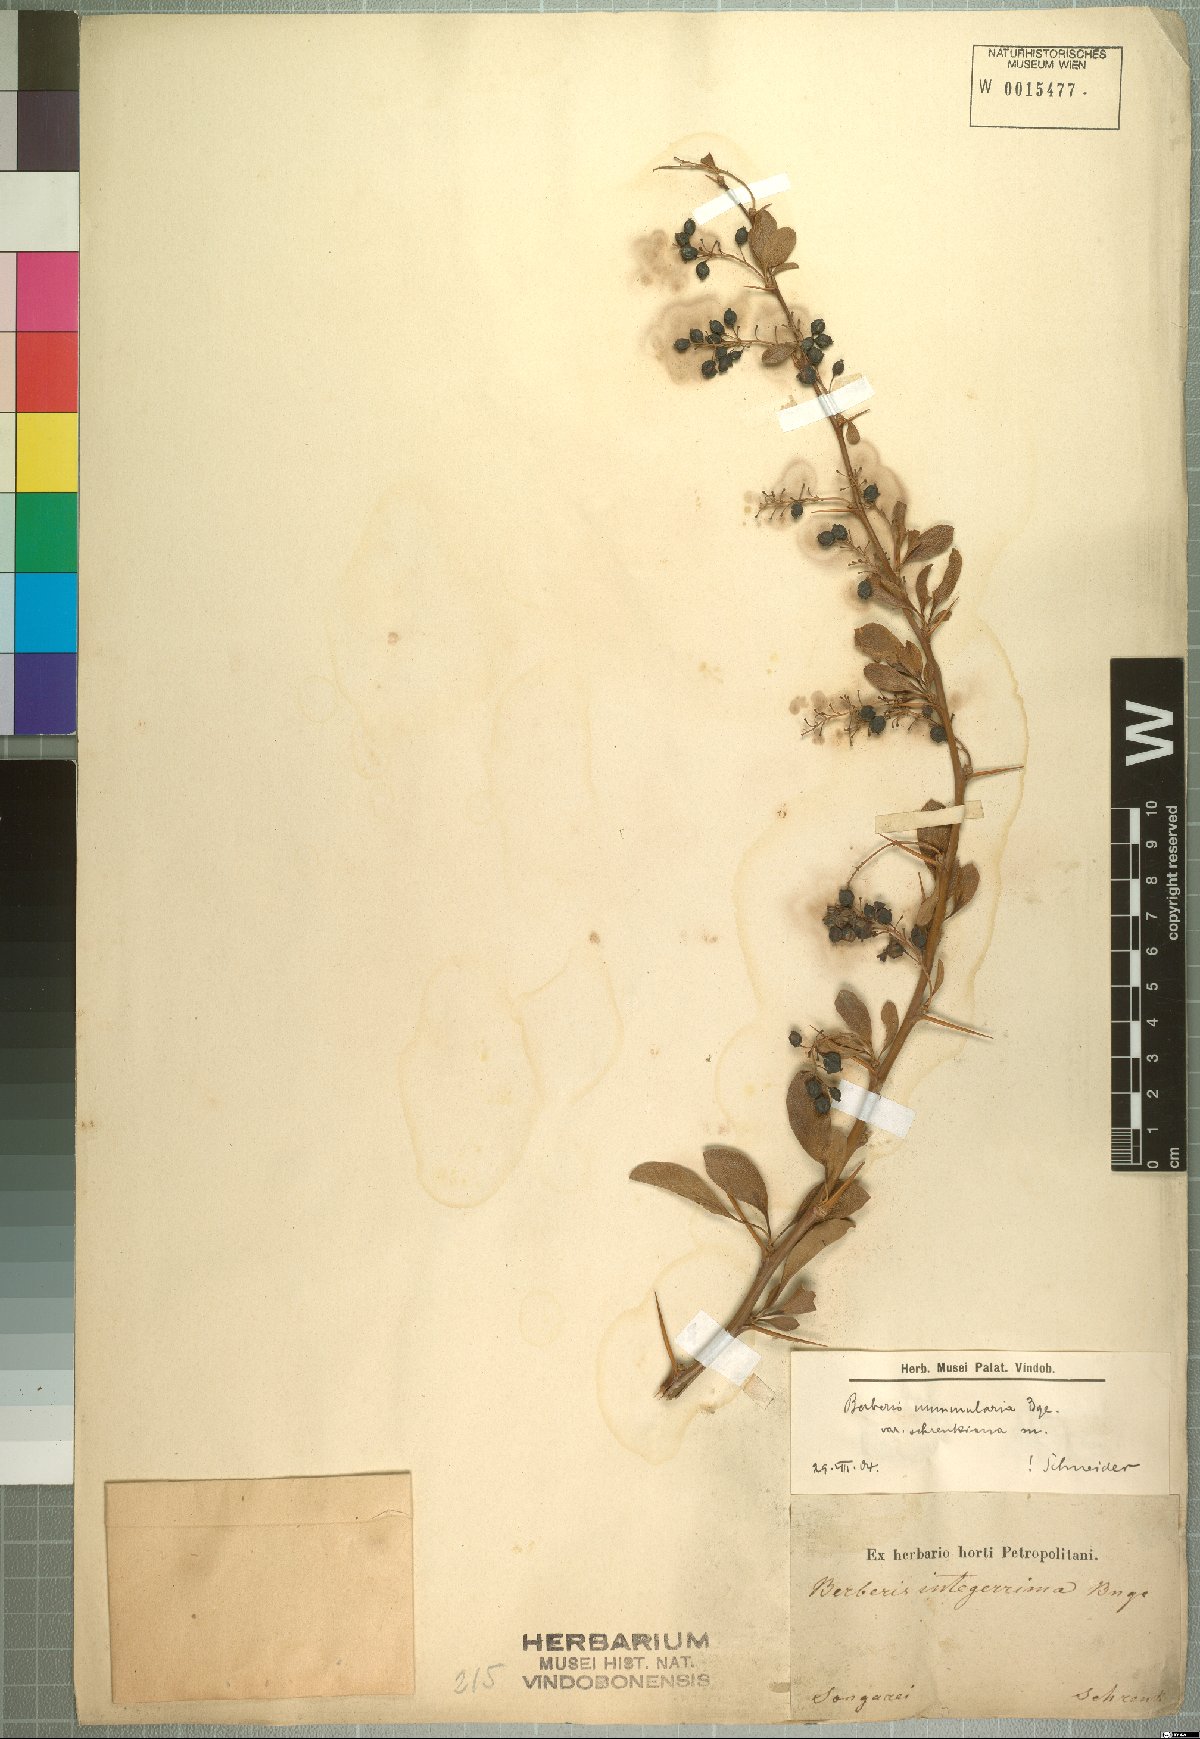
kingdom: Plantae
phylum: Tracheophyta
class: Magnoliopsida
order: Ranunculales
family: Berberidaceae
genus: Berberis
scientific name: Berberis integerrima
